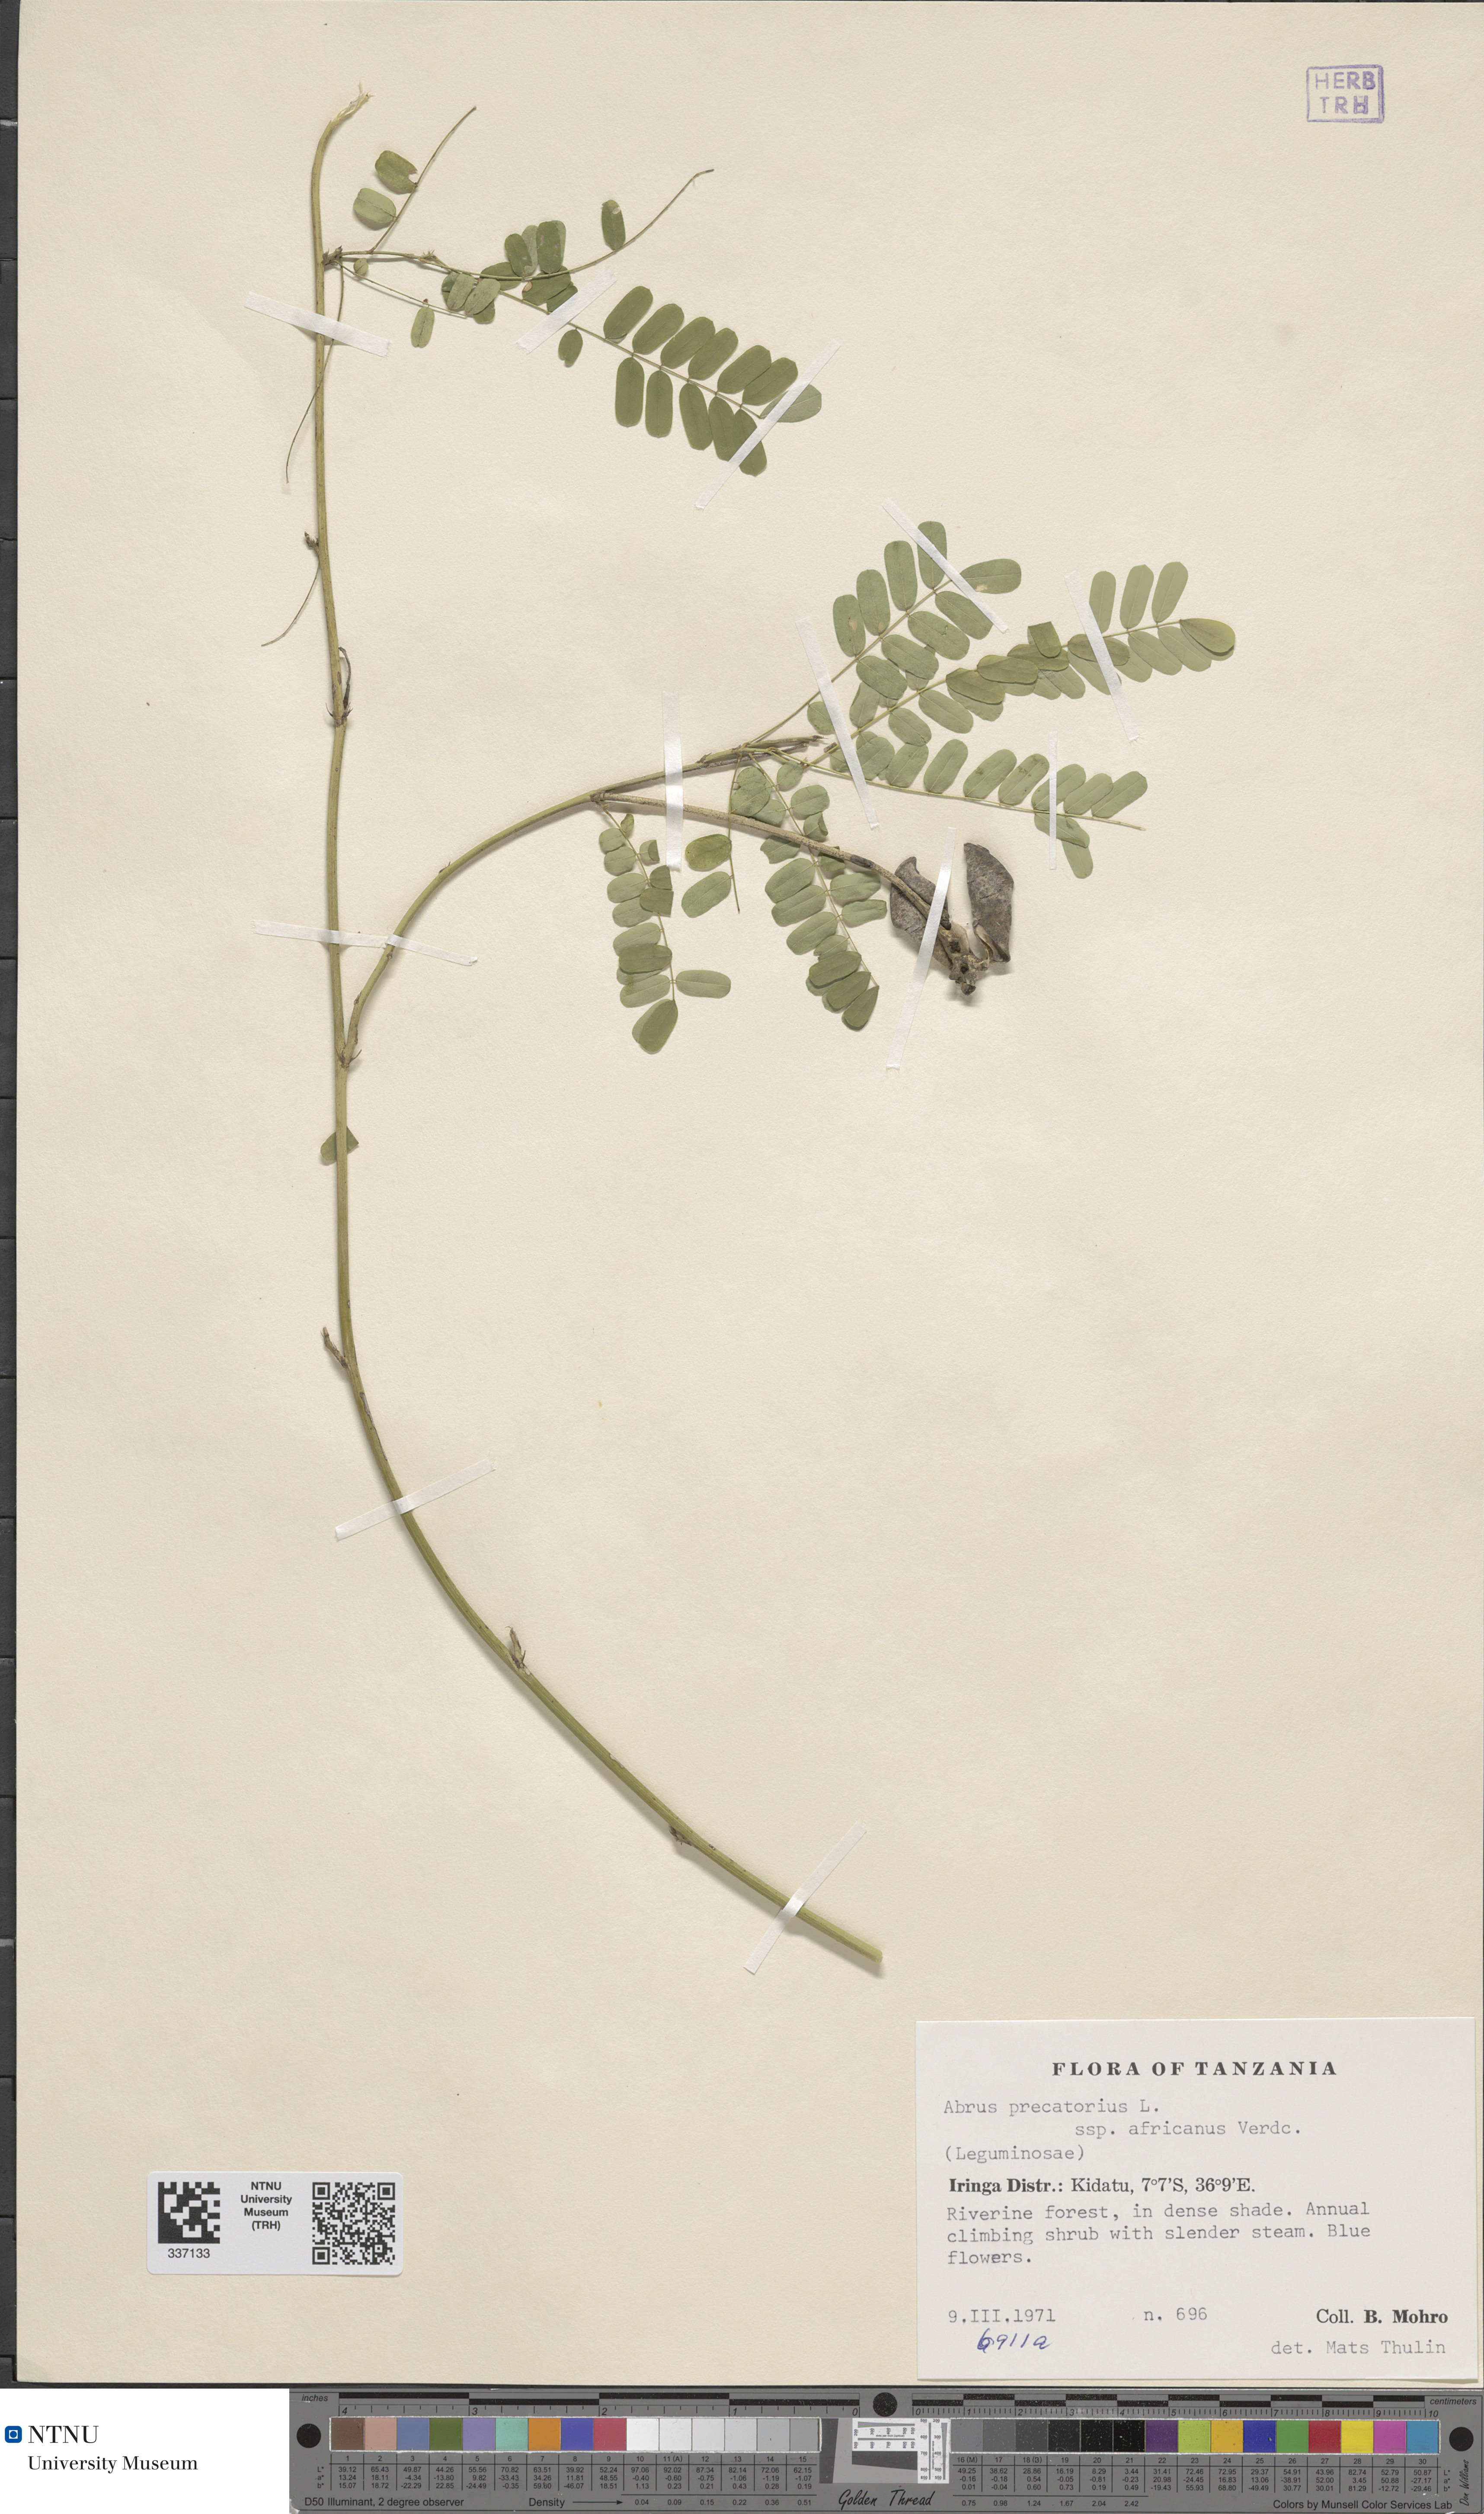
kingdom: Plantae
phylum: Tracheophyta
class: Magnoliopsida
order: Fabales
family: Fabaceae
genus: Abrus
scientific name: Abrus precatorius
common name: Rosarypea
